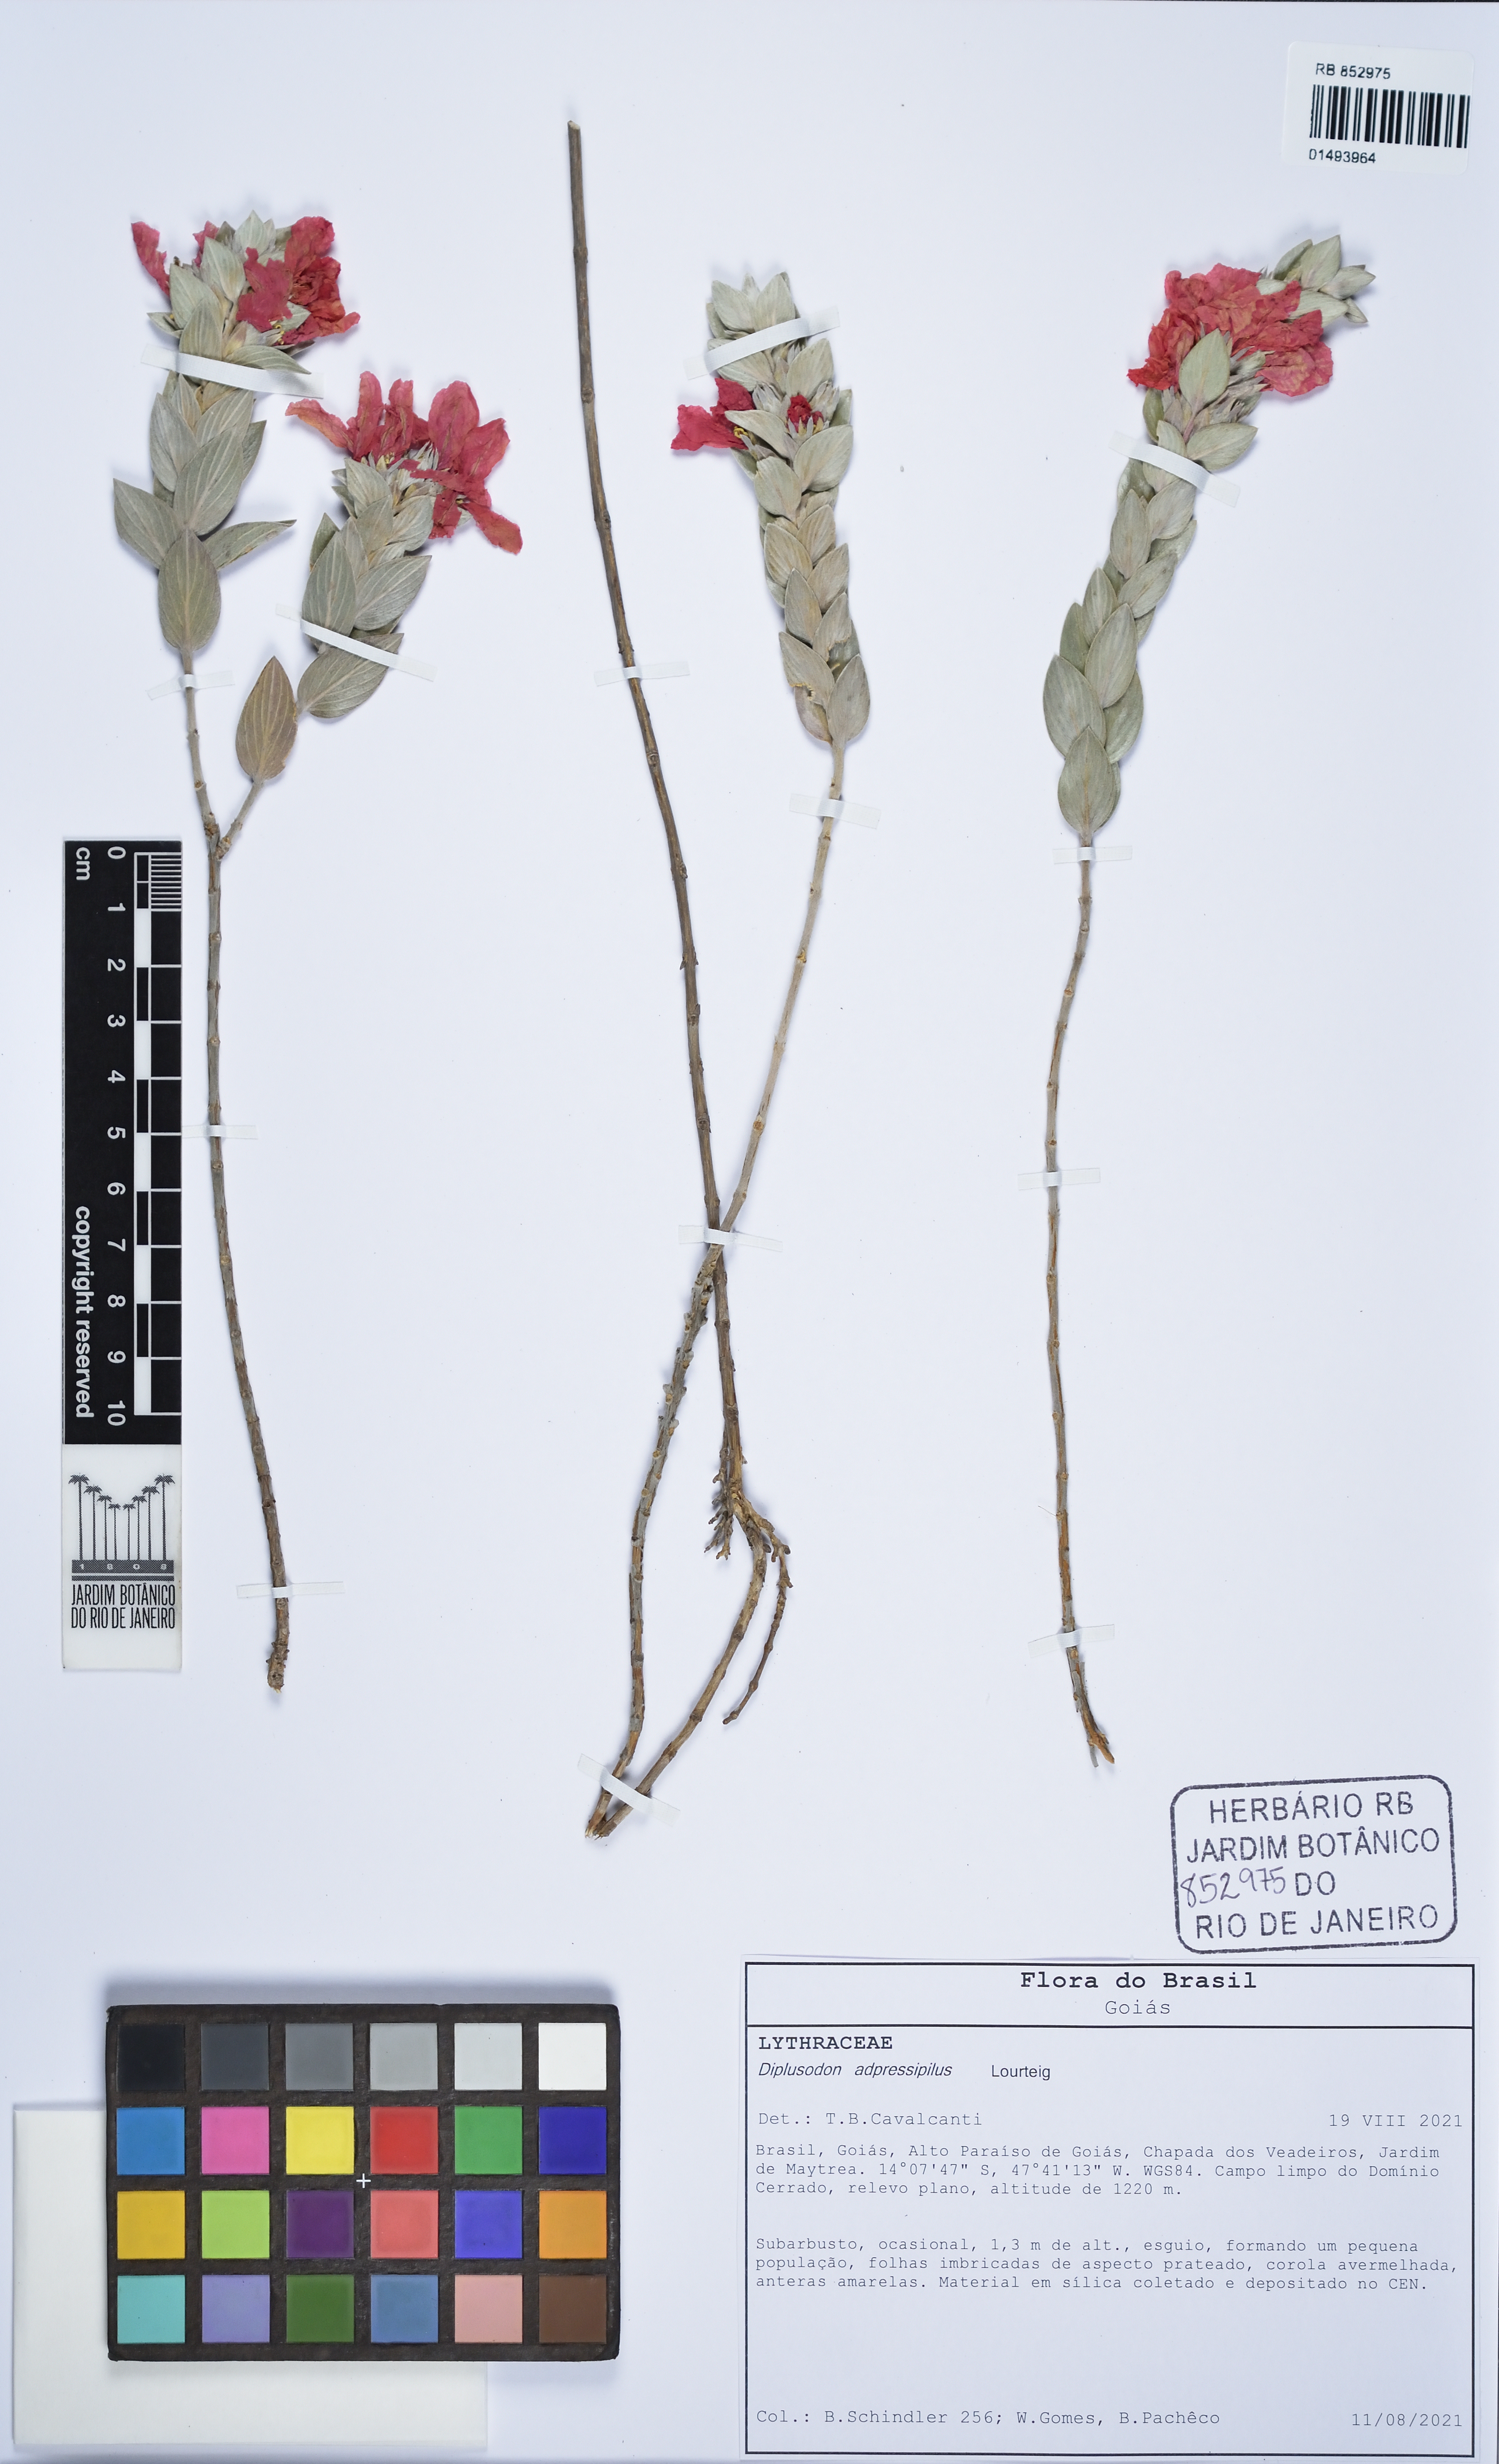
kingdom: Plantae
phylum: Tracheophyta
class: Magnoliopsida
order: Myrtales
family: Lythraceae
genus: Diplusodon
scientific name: Diplusodon adpressipilus
